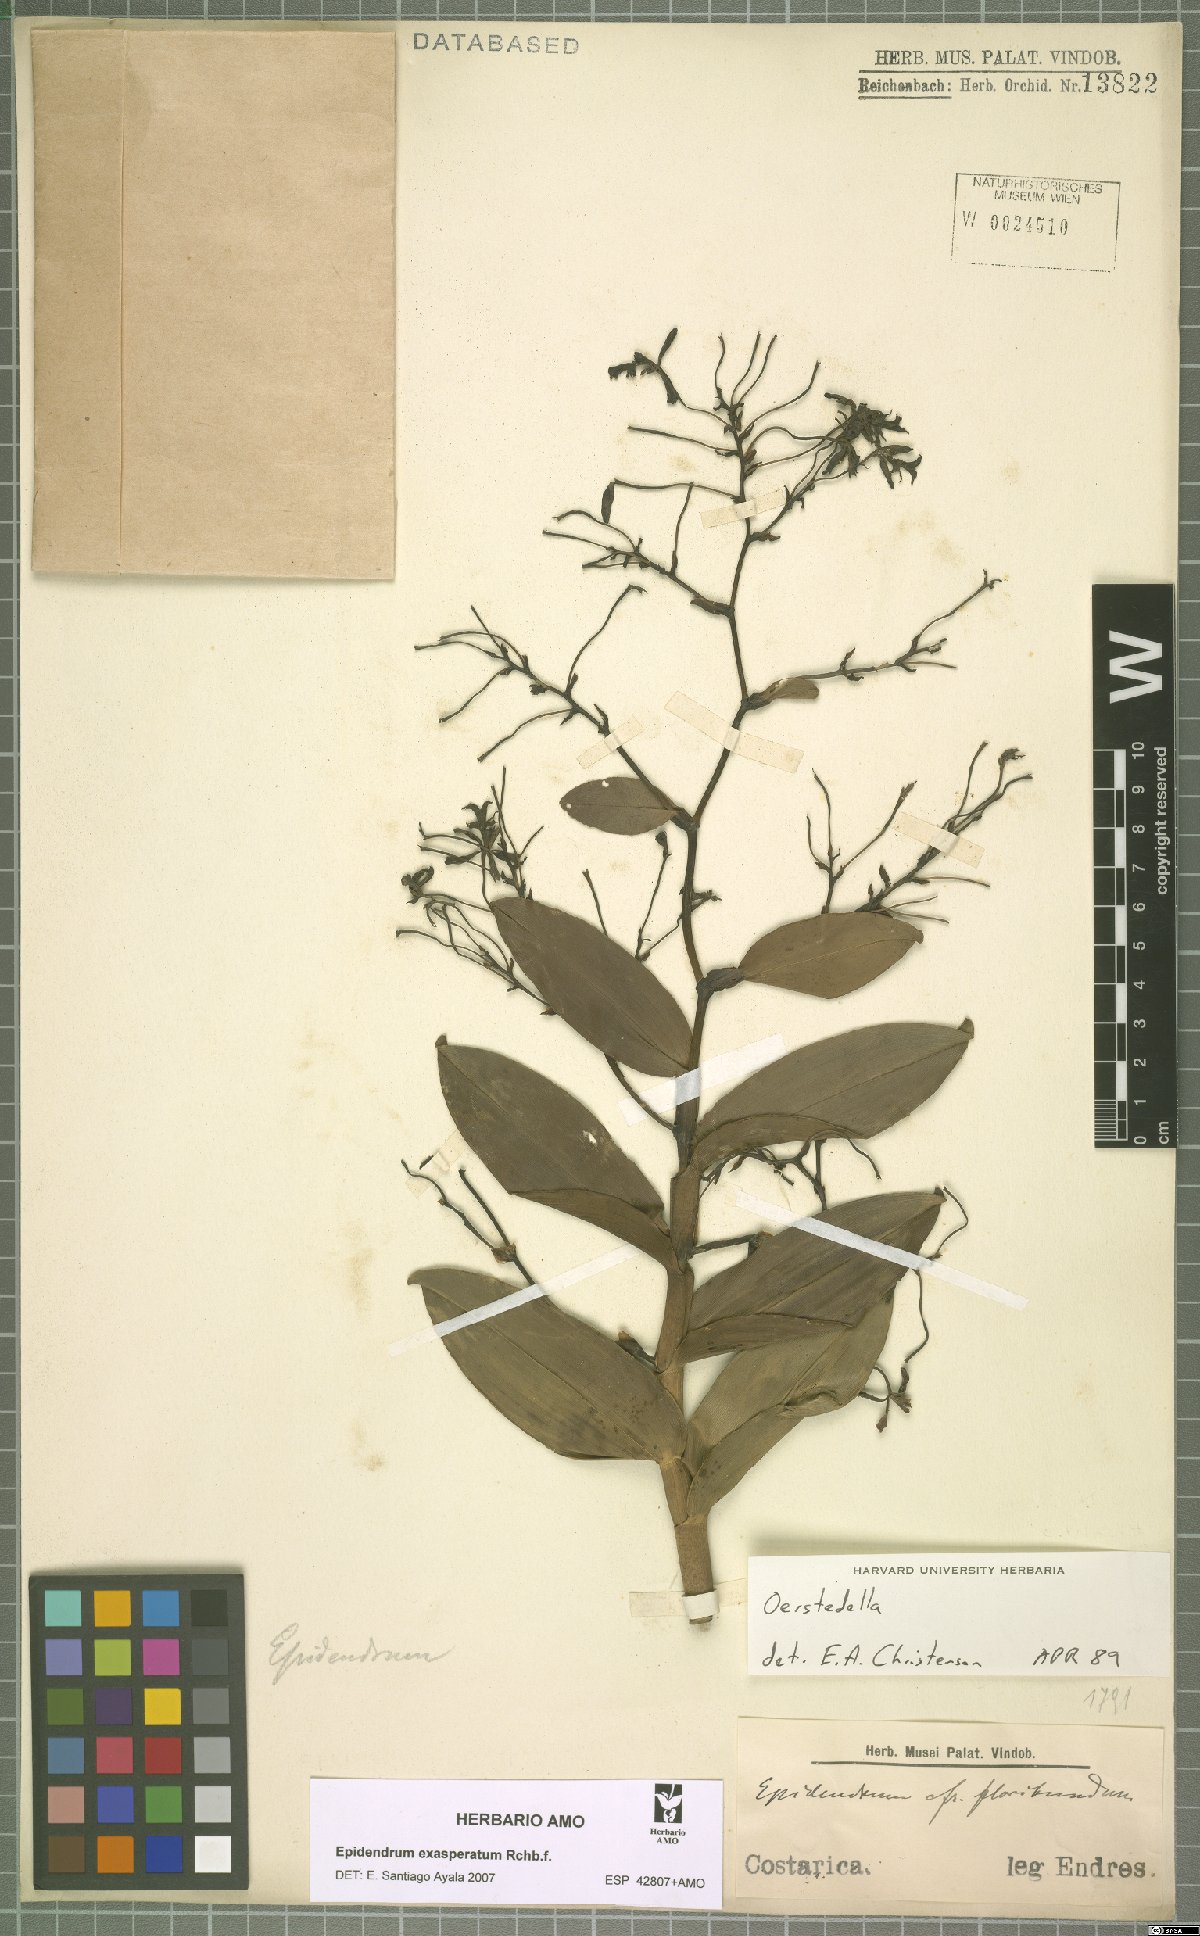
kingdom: Plantae
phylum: Tracheophyta
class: Liliopsida
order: Asparagales
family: Orchidaceae
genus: Epidendrum
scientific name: Epidendrum exasperatum
